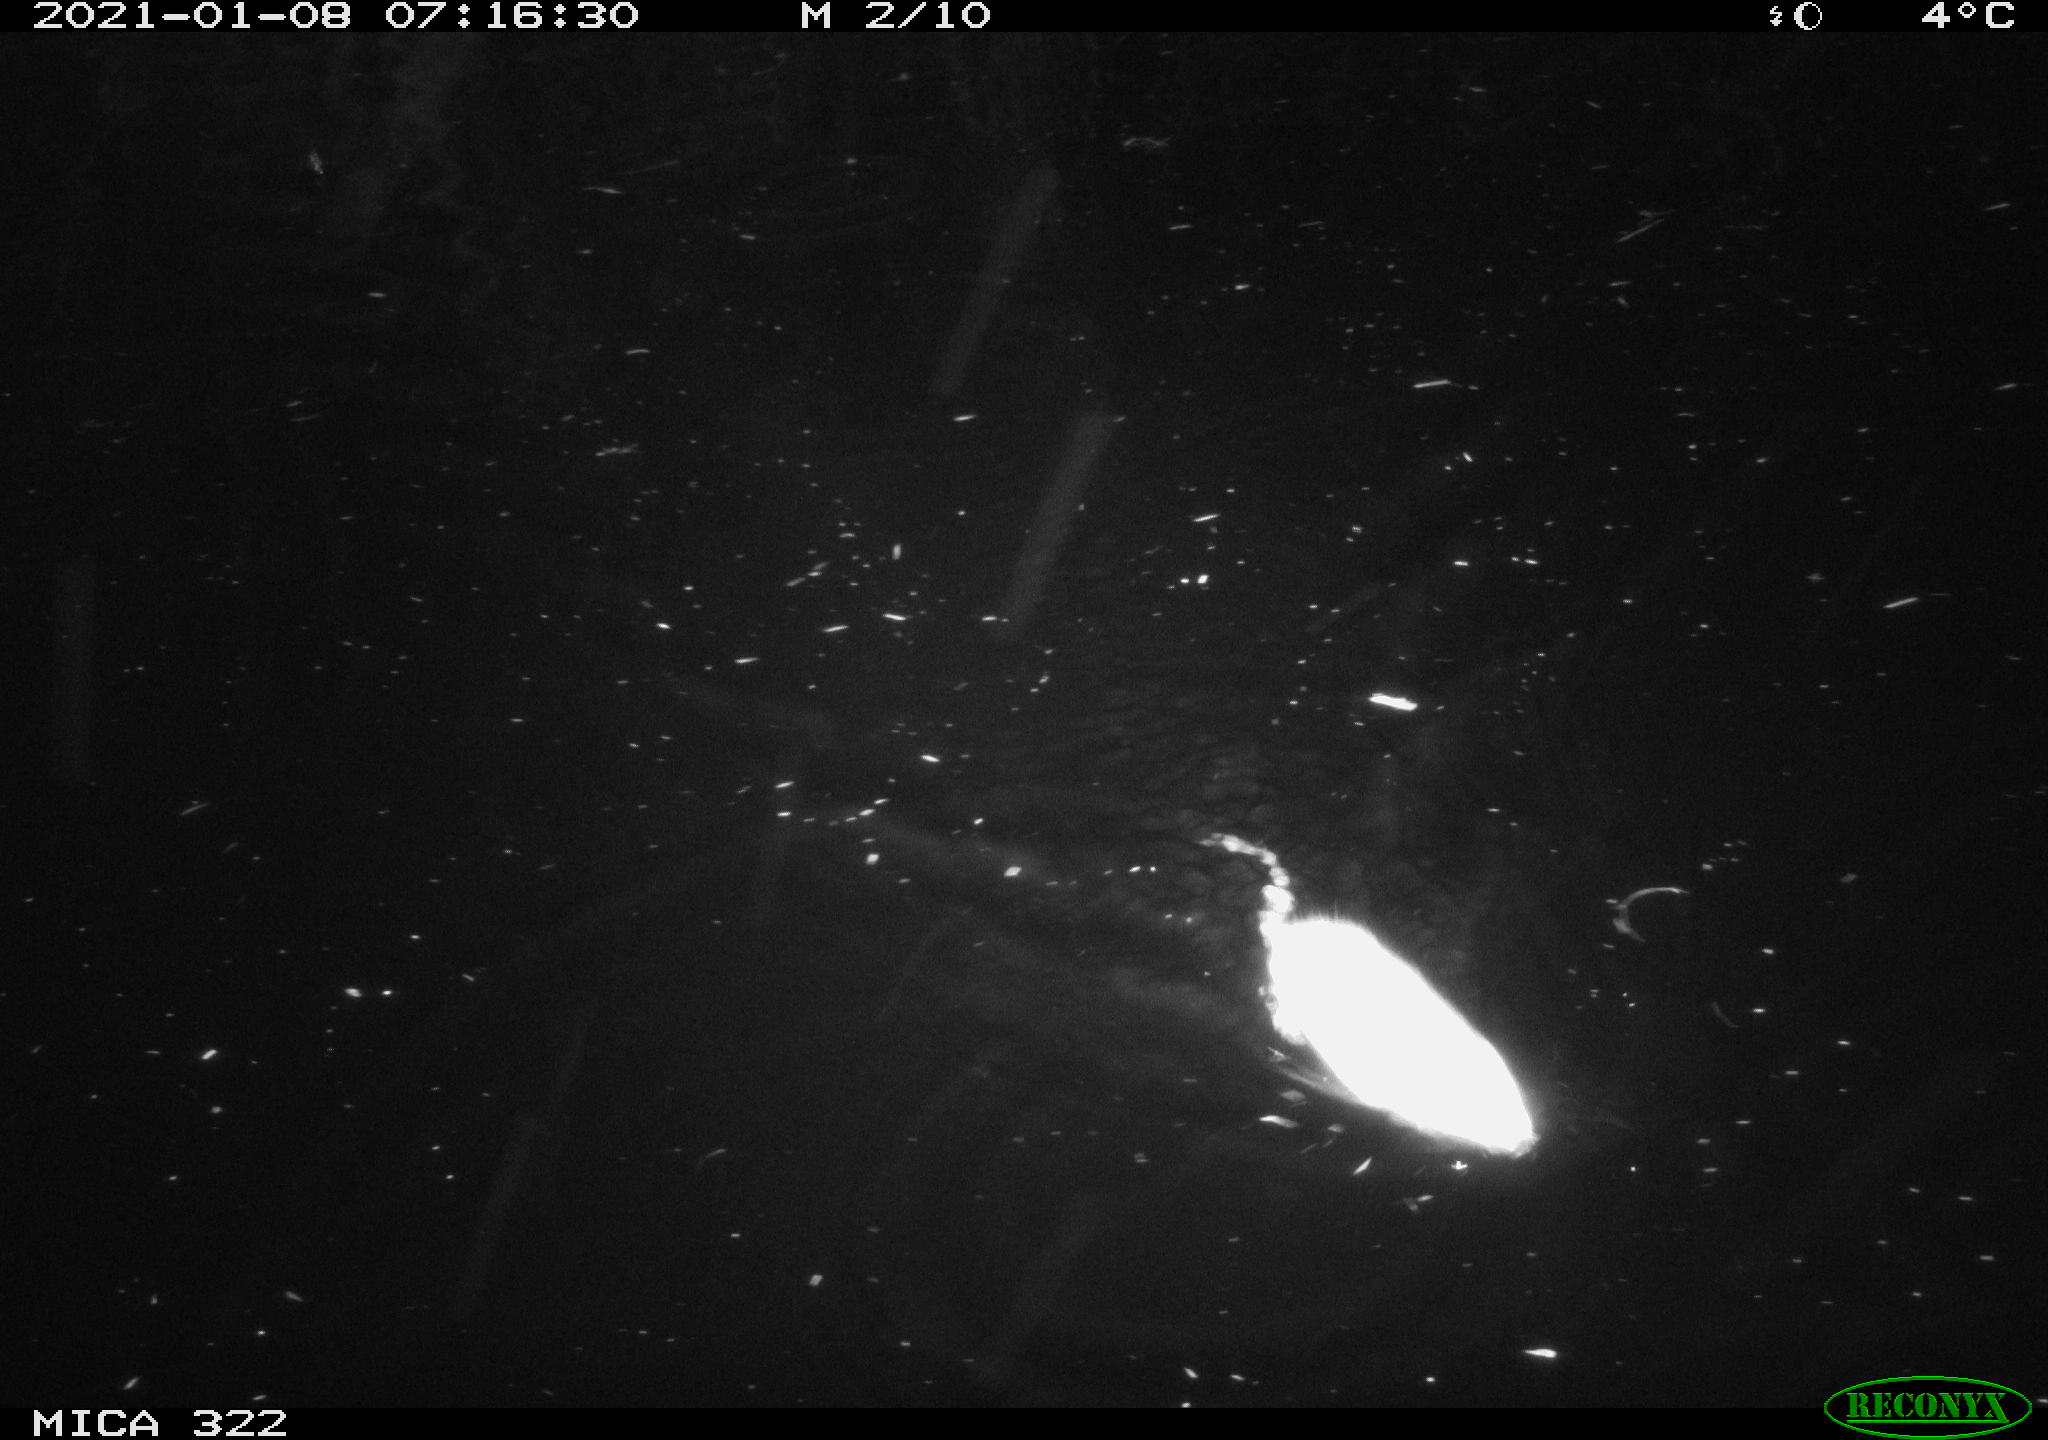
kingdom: Animalia
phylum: Chordata
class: Mammalia
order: Rodentia
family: Muridae
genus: Rattus
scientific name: Rattus norvegicus
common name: Brown rat
